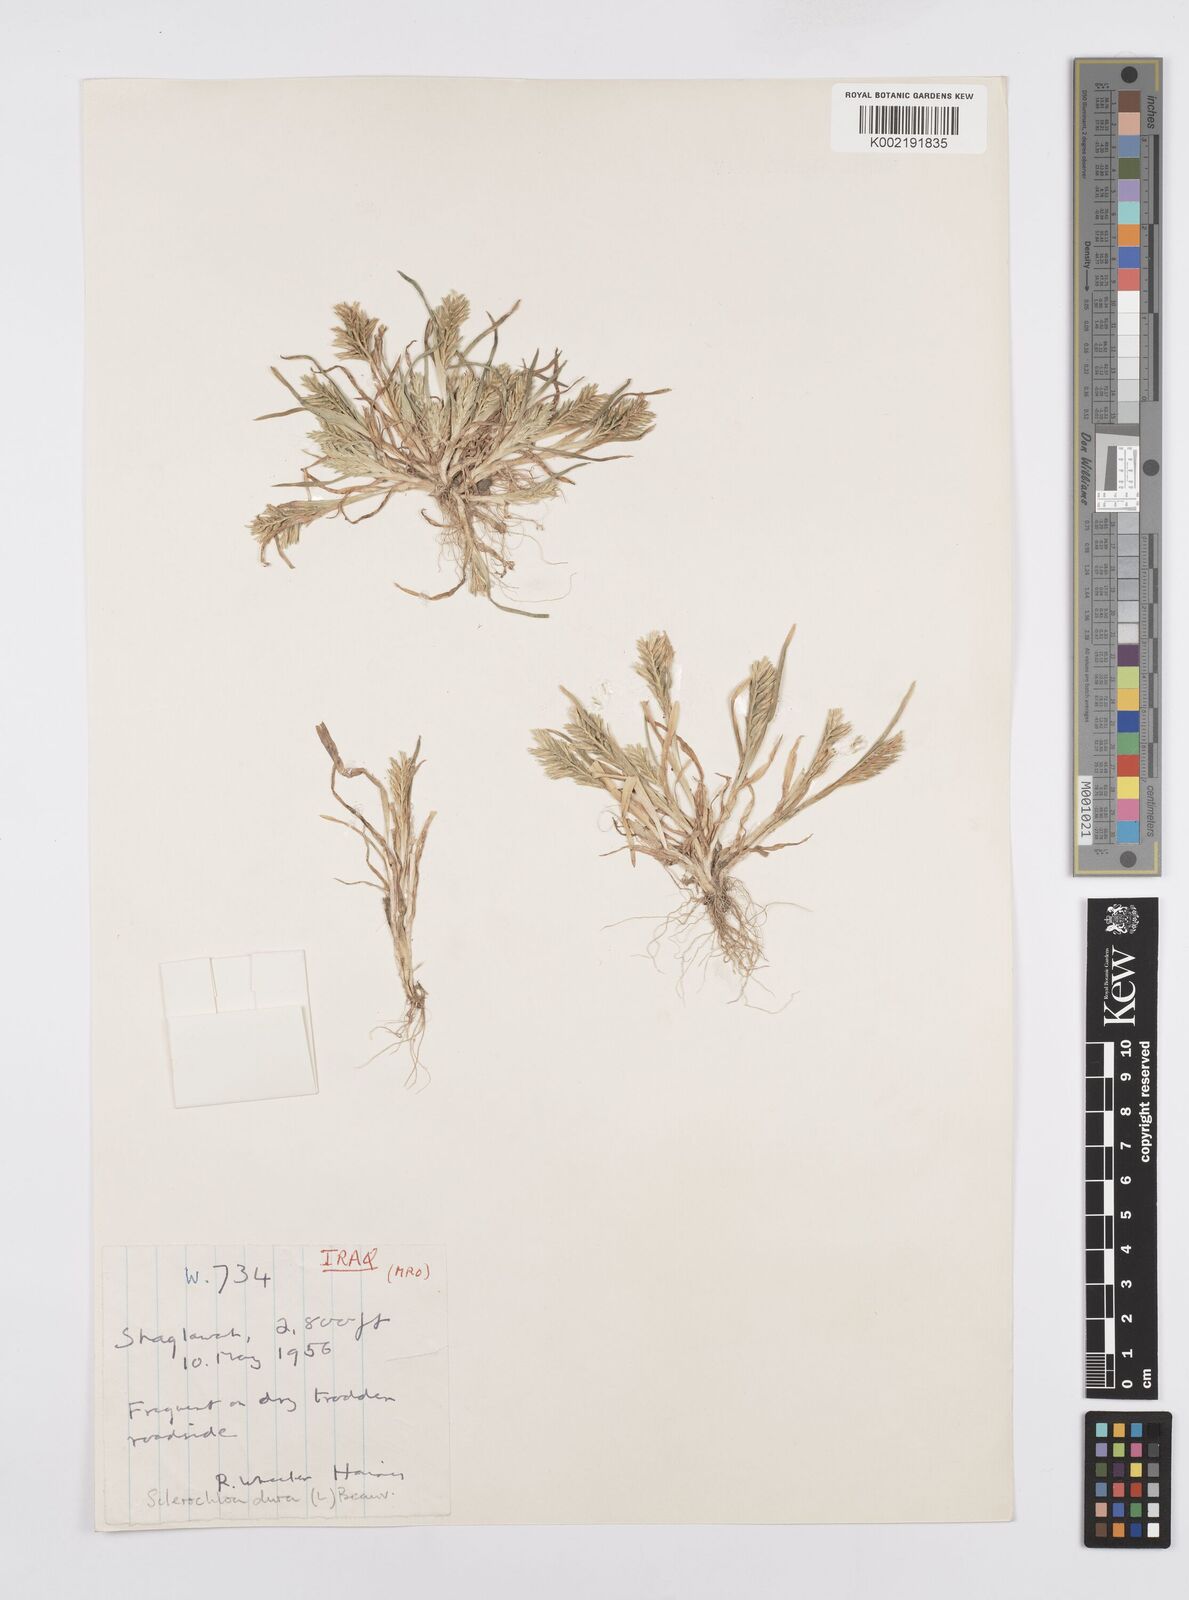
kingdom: Plantae
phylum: Tracheophyta
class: Liliopsida
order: Poales
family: Poaceae
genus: Sclerochloa
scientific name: Sclerochloa dura
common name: Common hardgrass
